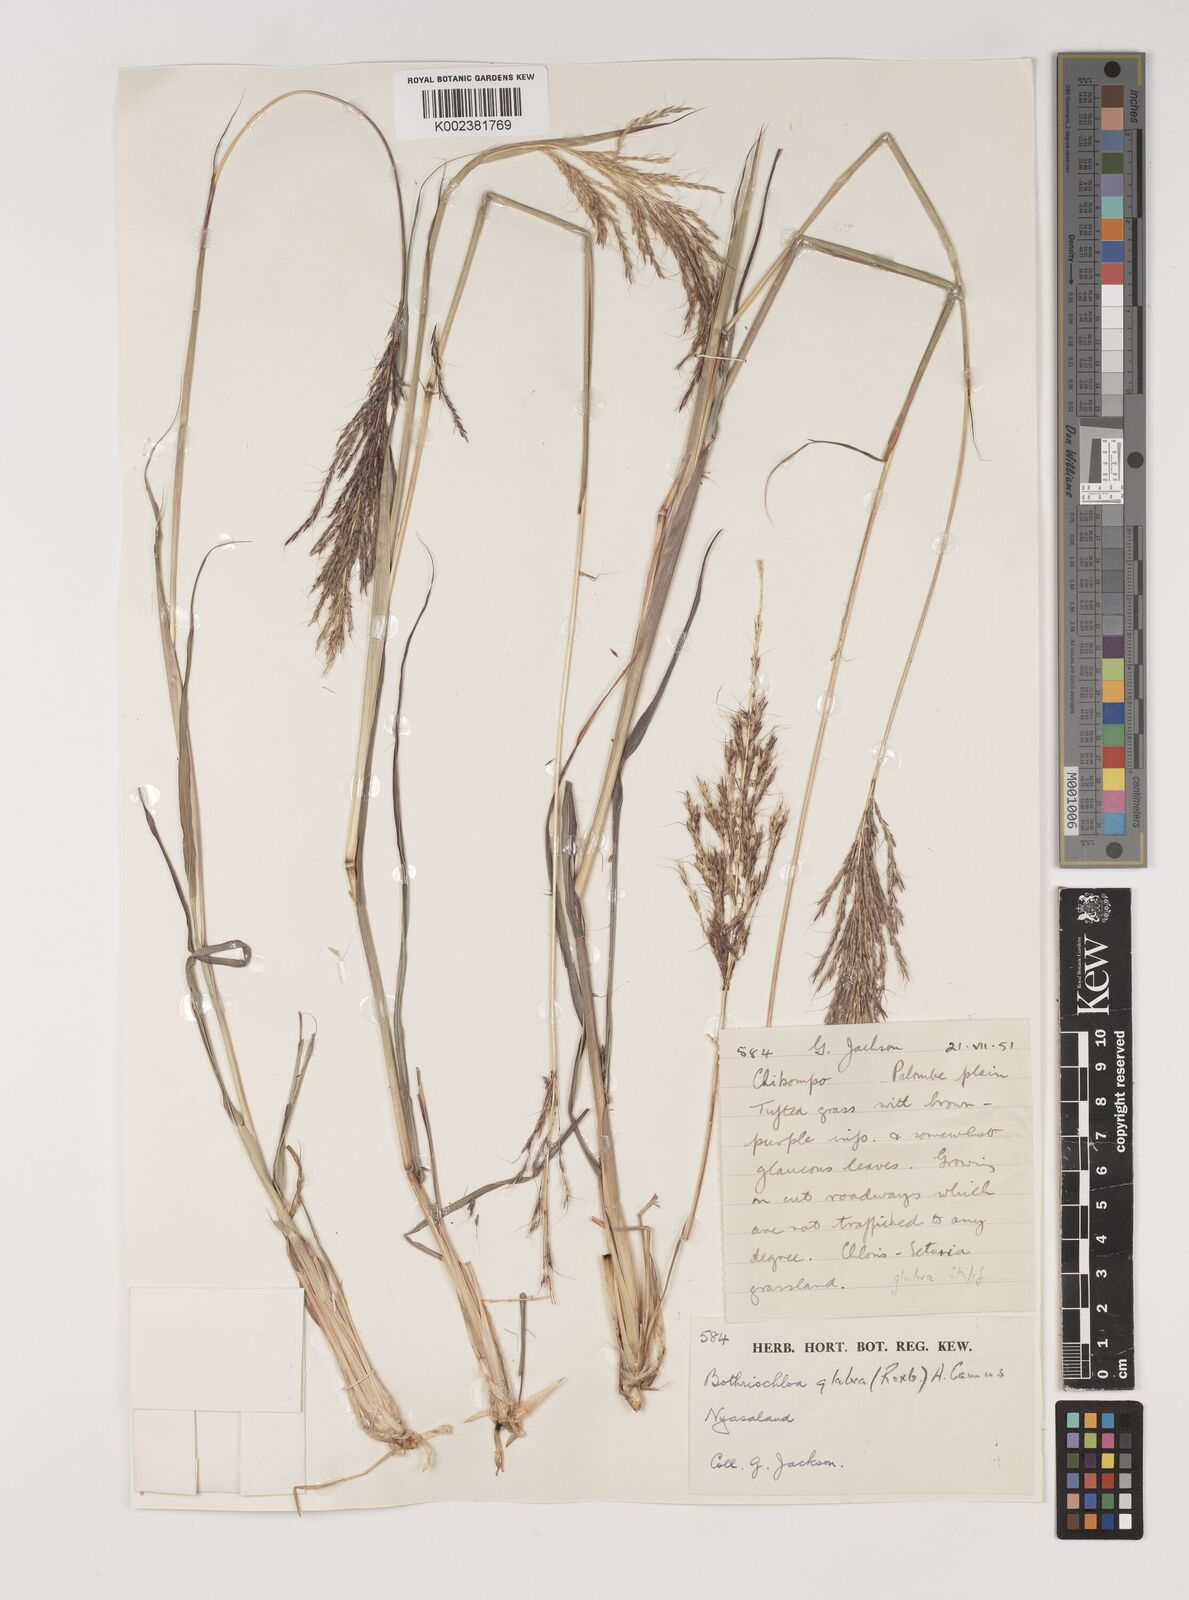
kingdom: Plantae
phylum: Tracheophyta
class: Liliopsida
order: Poales
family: Poaceae
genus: Bothriochloa
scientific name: Bothriochloa bladhii
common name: Caucasian bluestem
